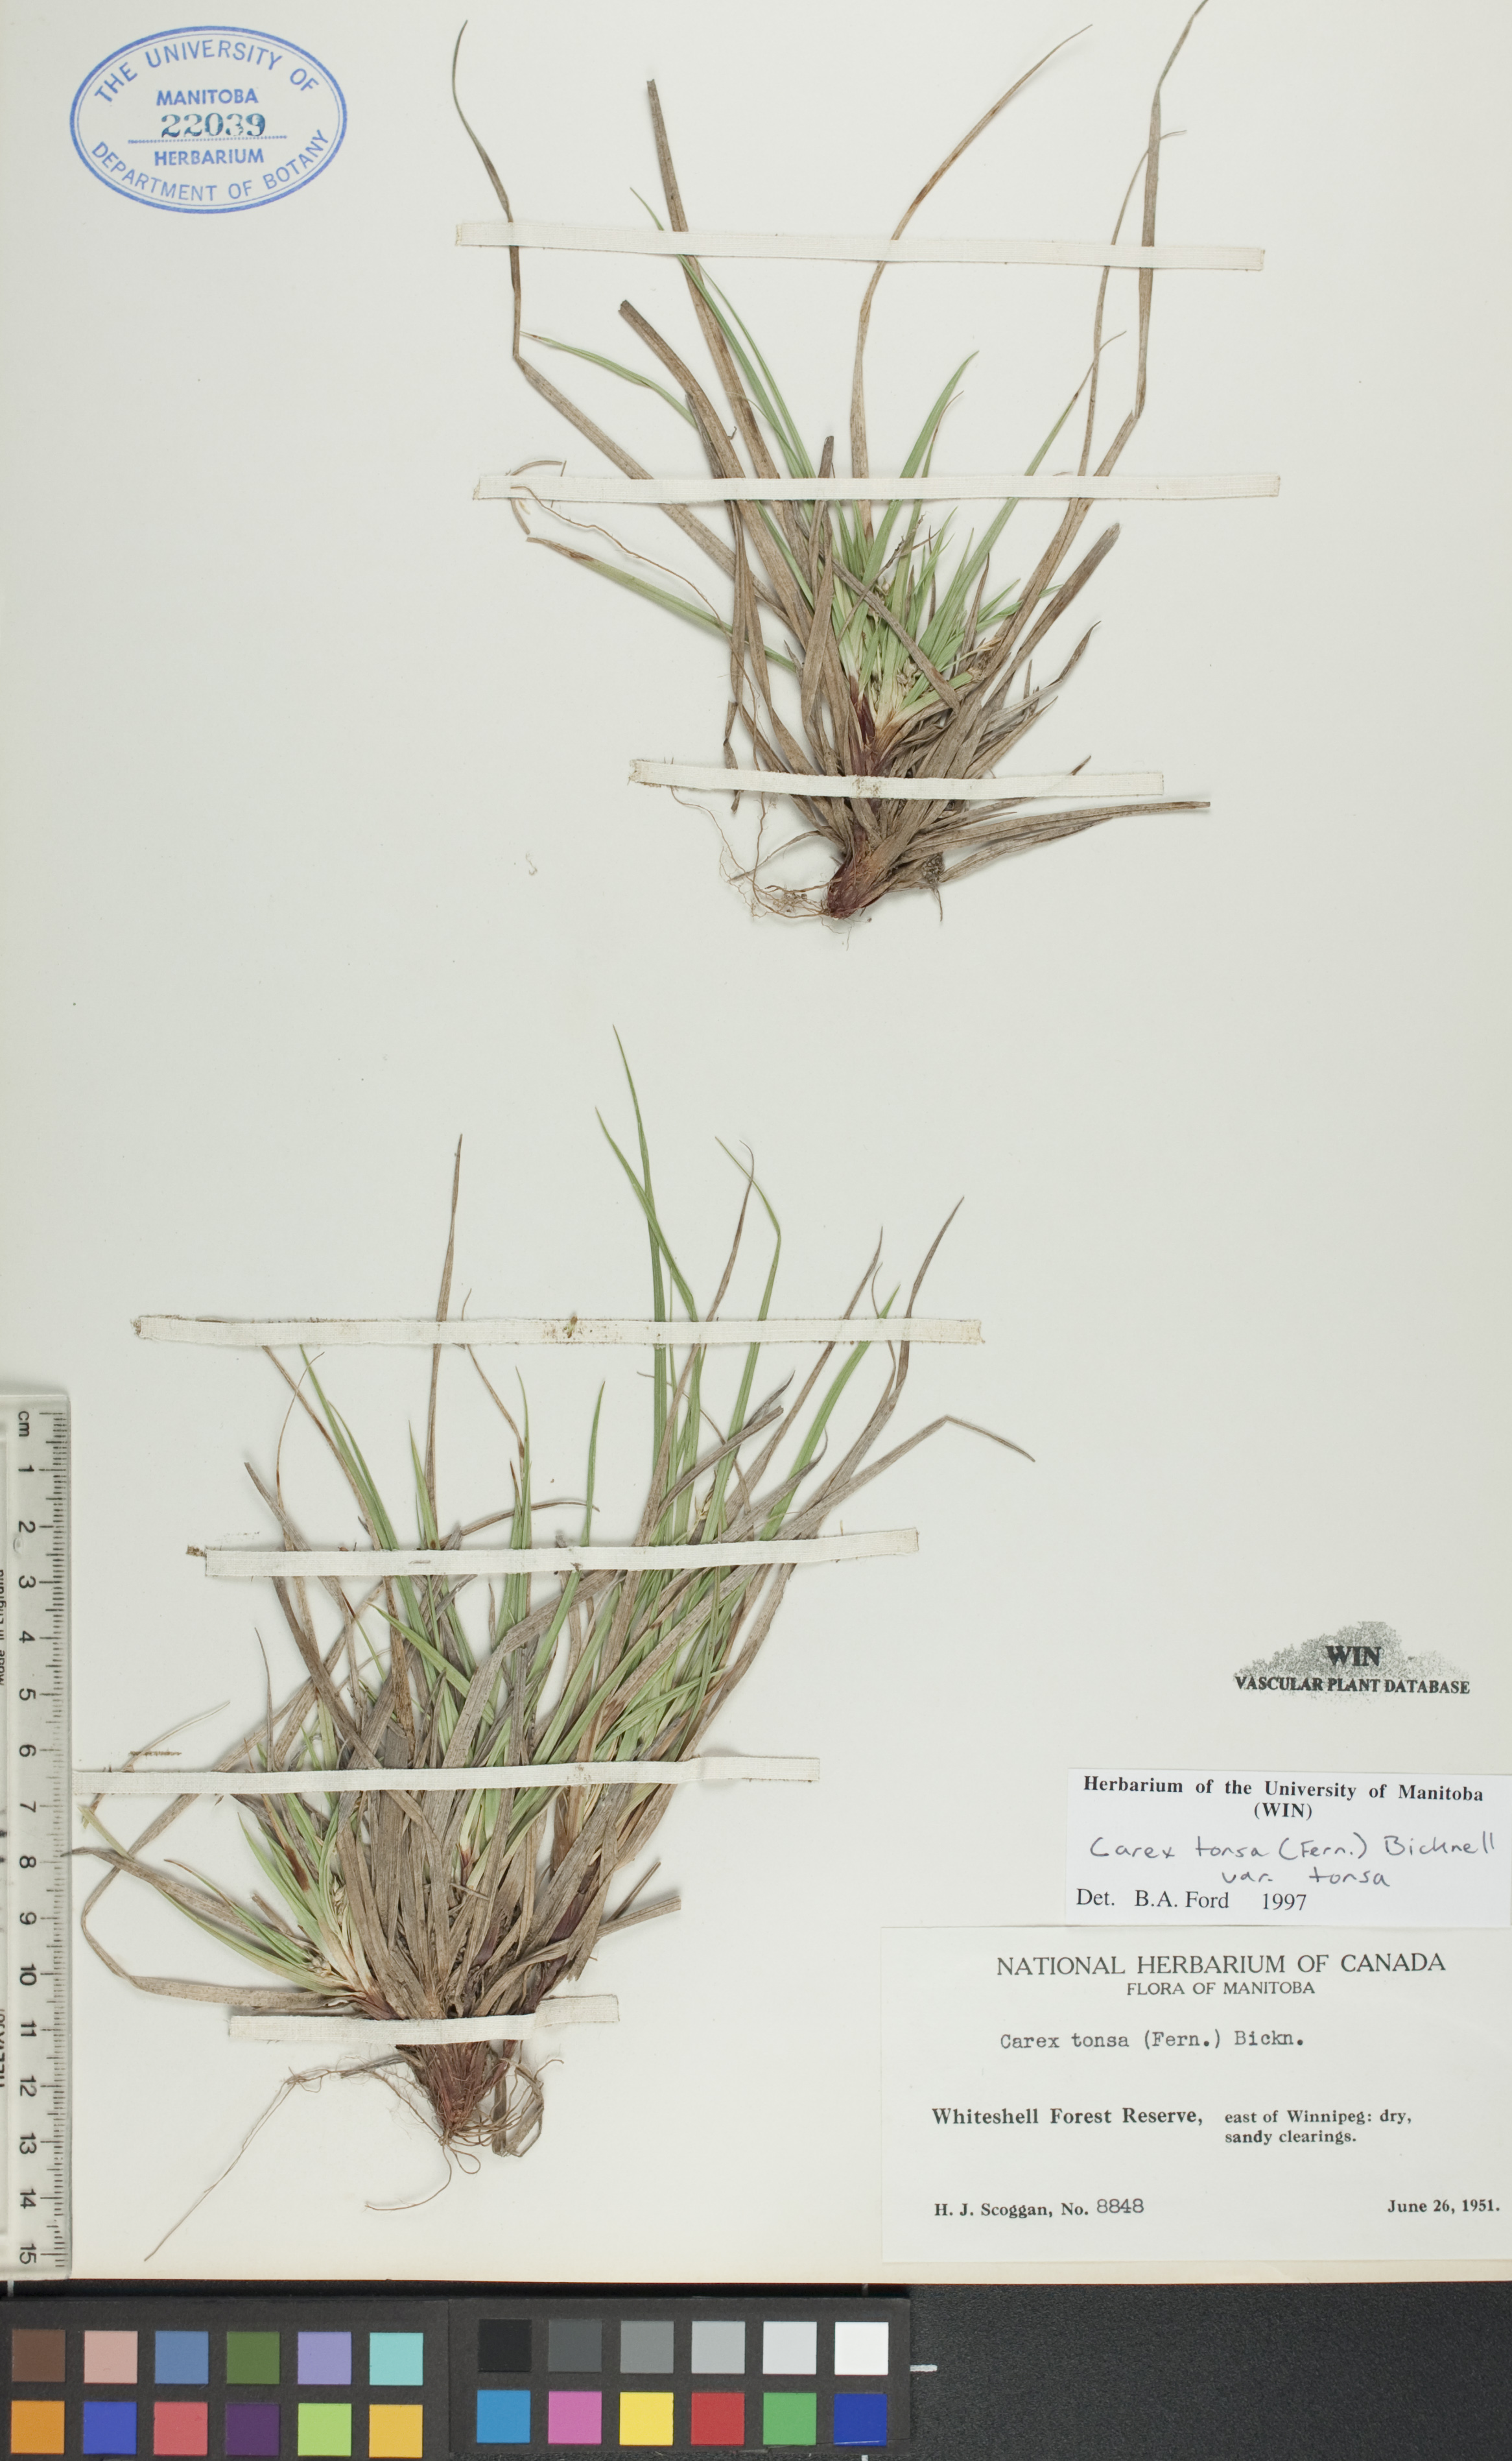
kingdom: Plantae
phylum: Tracheophyta
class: Liliopsida
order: Poales
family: Cyperaceae
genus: Carex
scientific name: Carex tonsa
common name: Bald sedge
